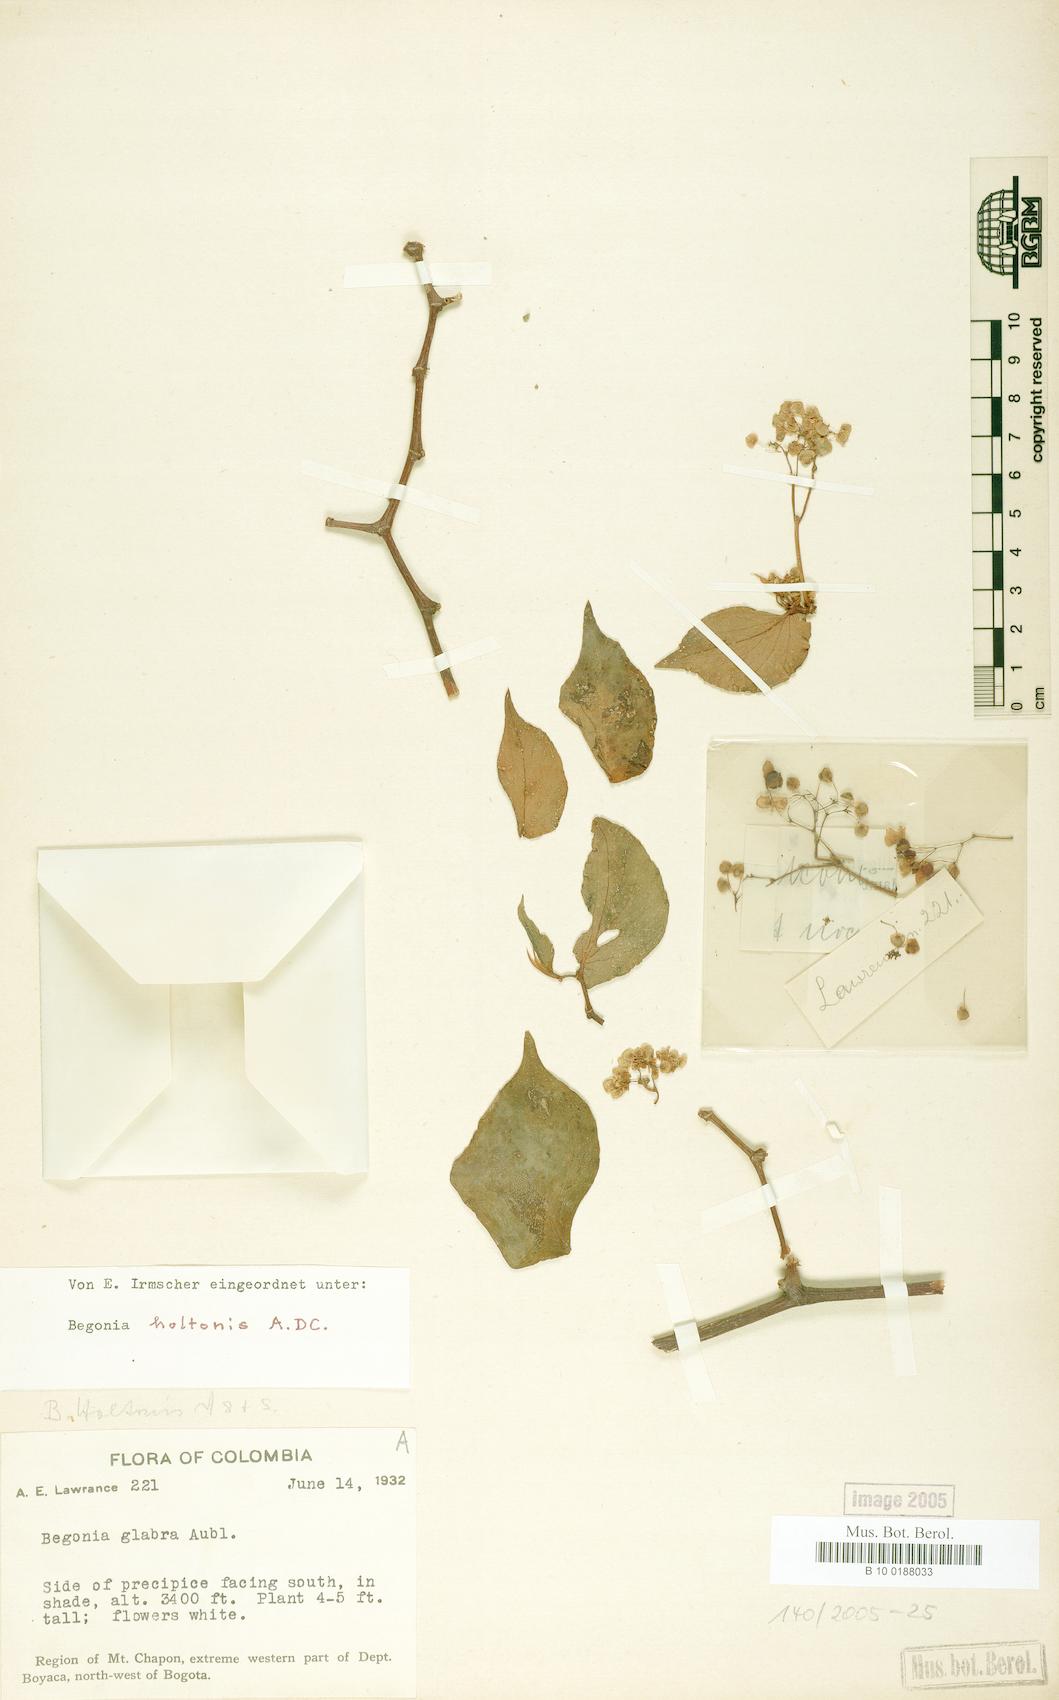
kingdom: Plantae
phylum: Tracheophyta
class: Magnoliopsida
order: Cucurbitales
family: Begoniaceae
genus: Begonia
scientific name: Begonia glabra
